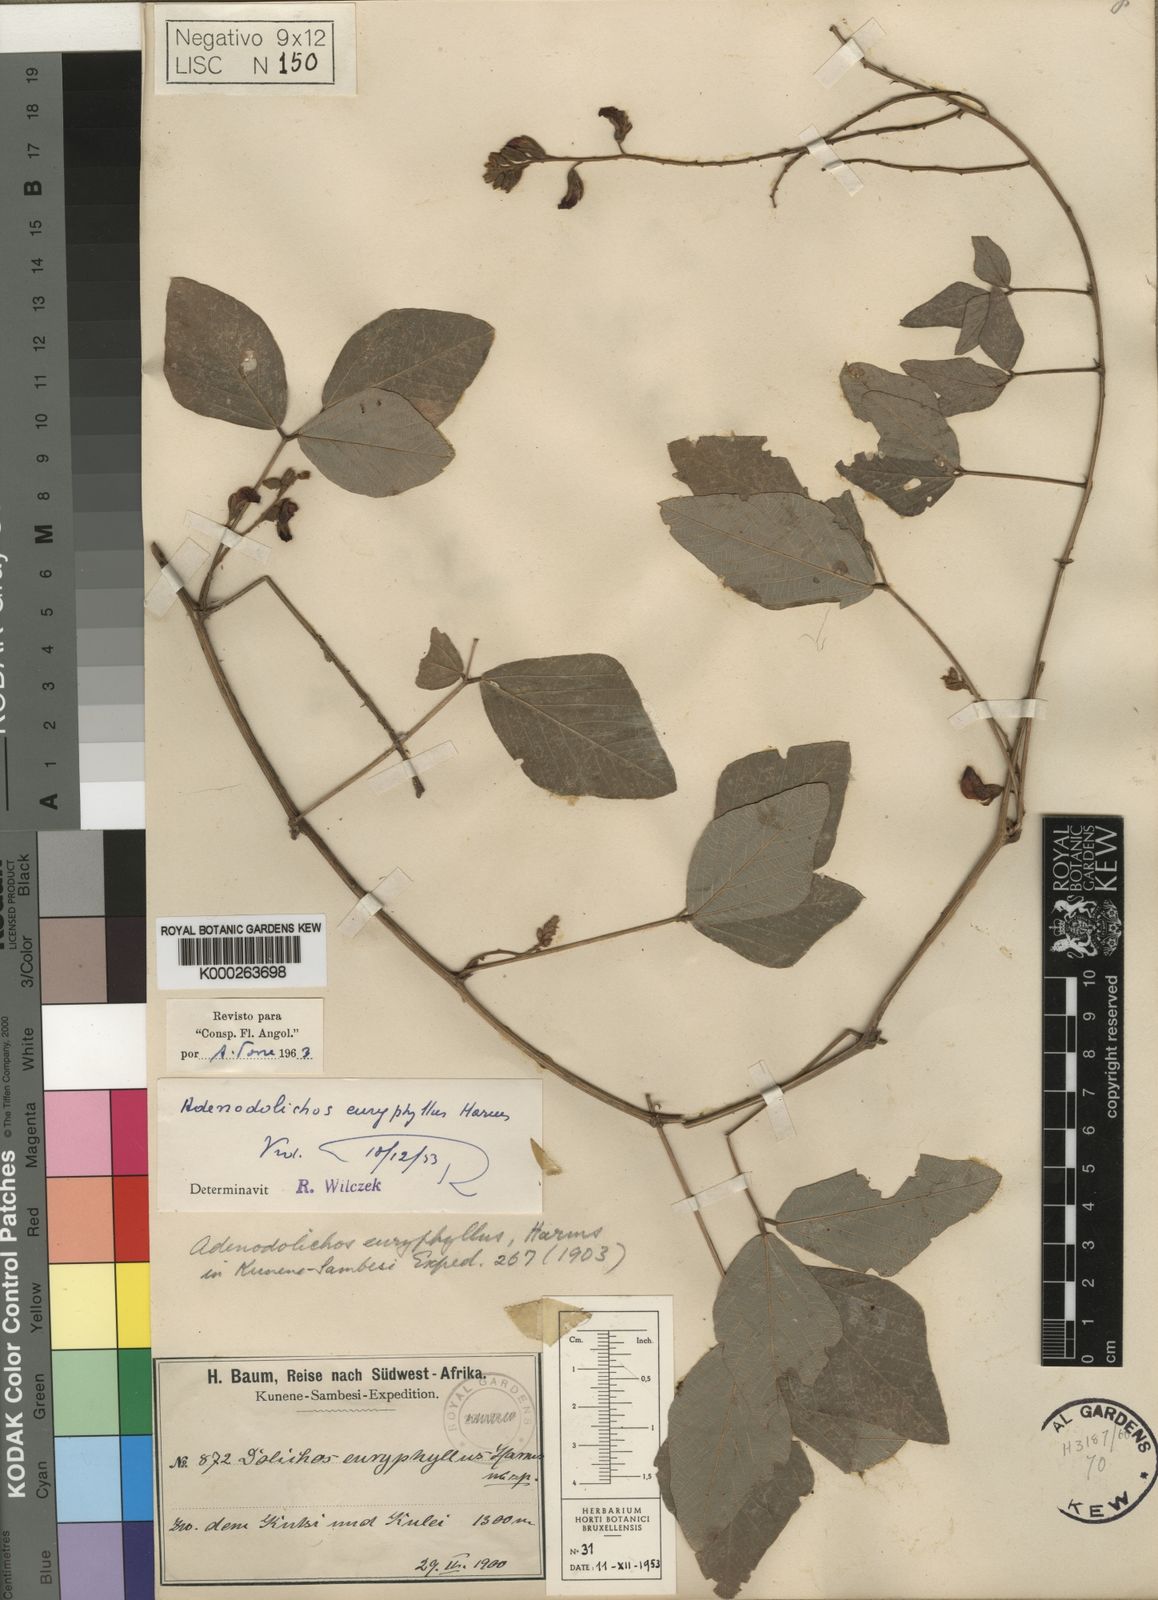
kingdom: Plantae
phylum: Tracheophyta
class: Magnoliopsida
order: Fabales
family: Fabaceae
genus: Adenodolichos
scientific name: Adenodolichos rhomboideus
